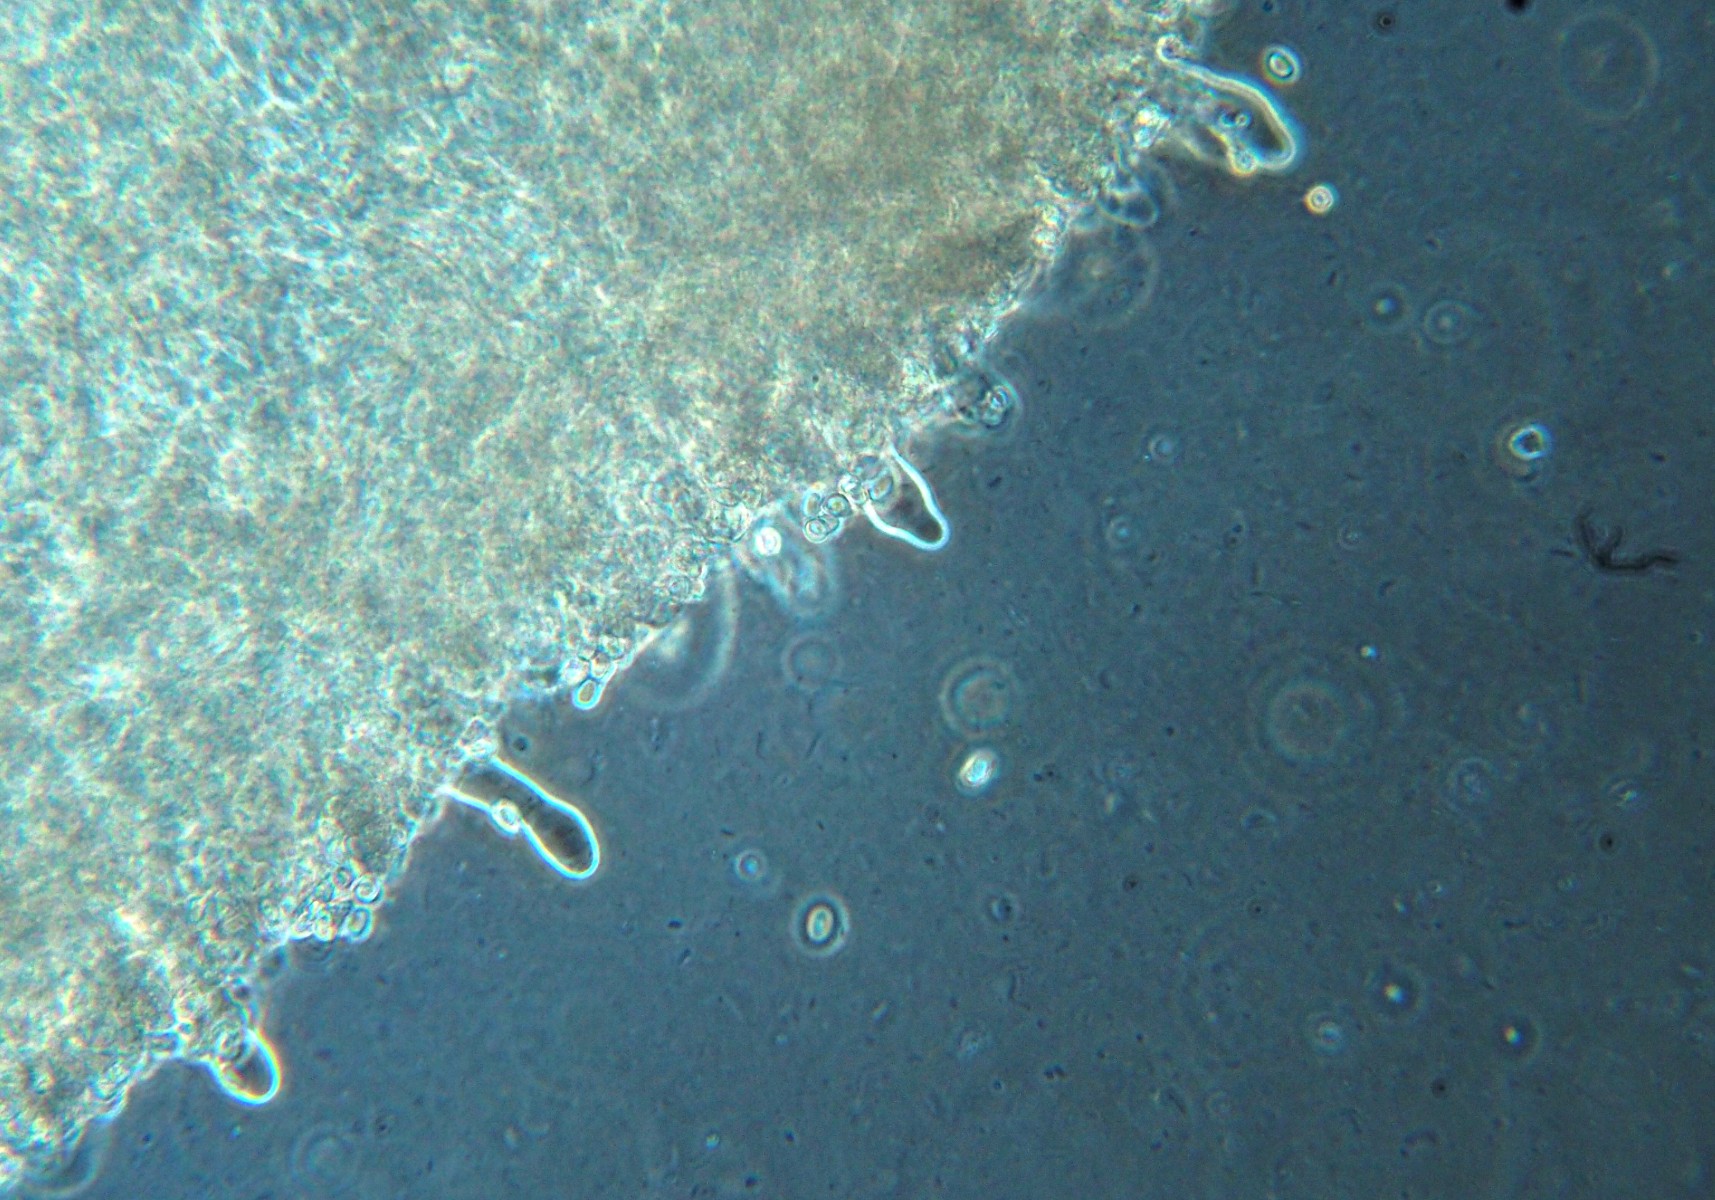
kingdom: Fungi
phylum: Basidiomycota
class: Agaricomycetes
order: Agaricales
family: Tricholomataceae
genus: Gamundia
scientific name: Gamundia xerophila
